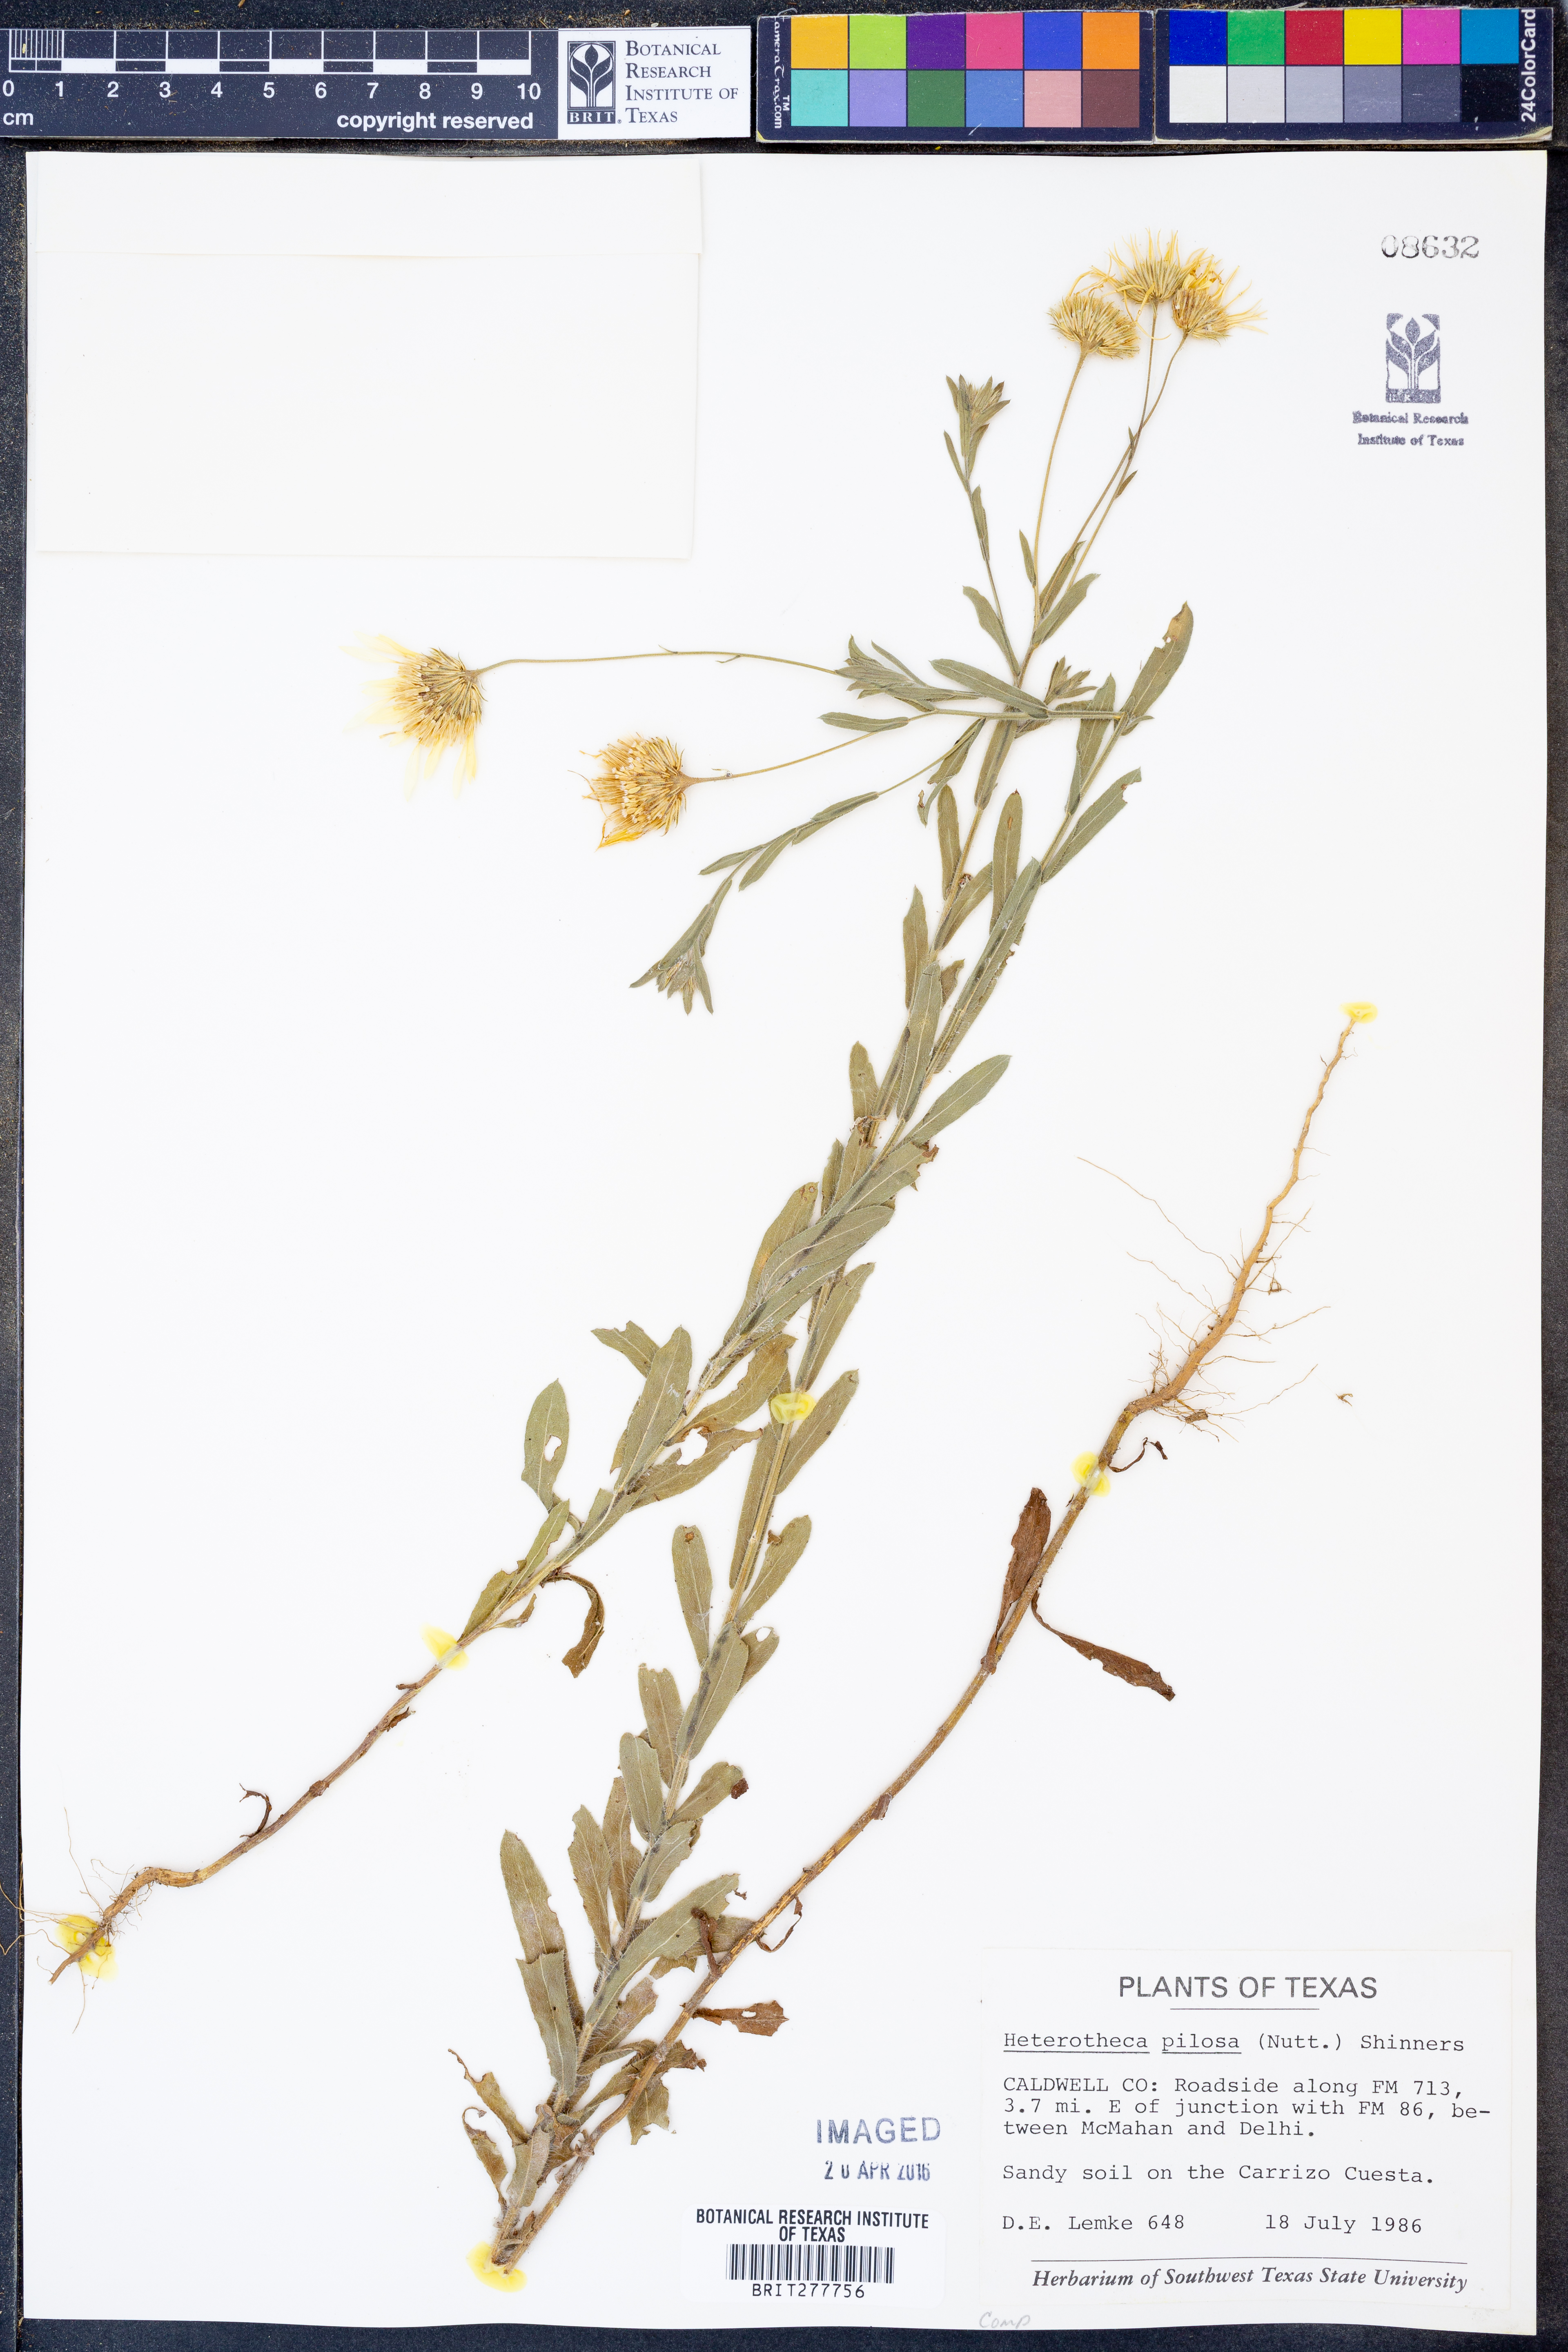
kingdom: Plantae
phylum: Tracheophyta
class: Magnoliopsida
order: Asterales
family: Asteraceae
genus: Bradburia
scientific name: Bradburia pilosa
